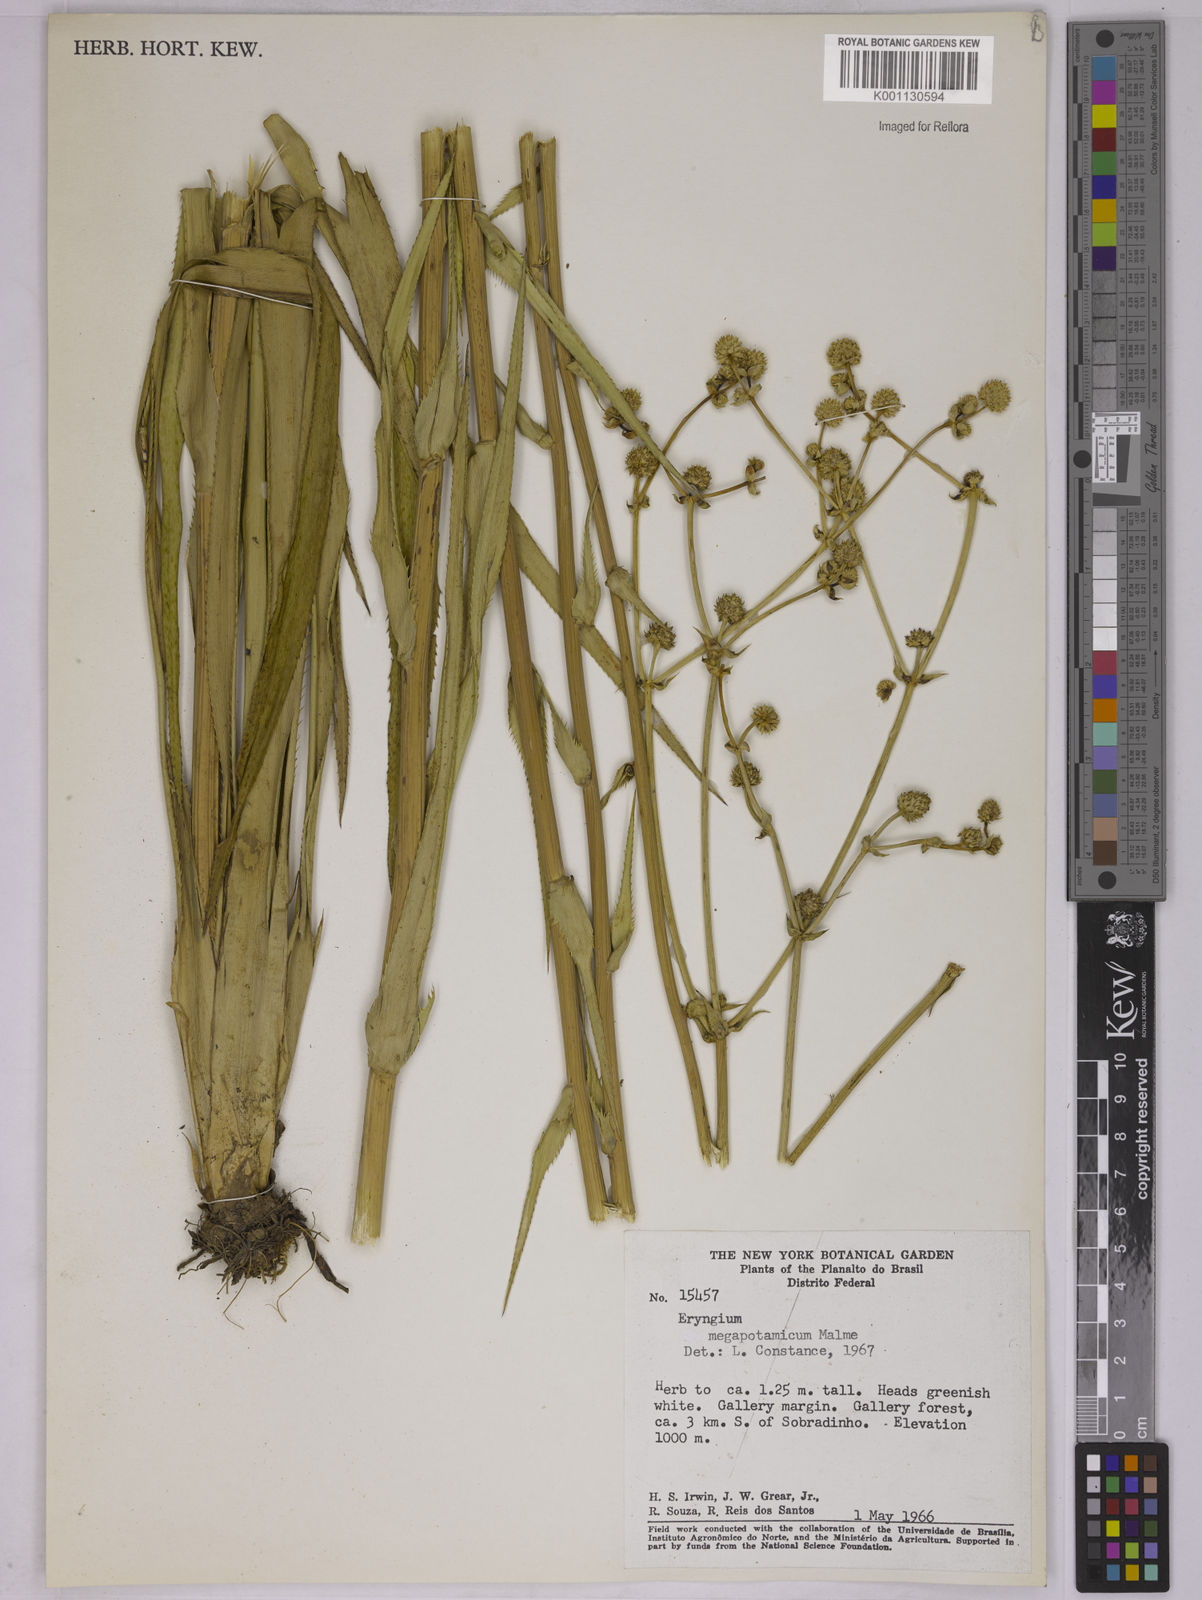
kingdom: Plantae
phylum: Tracheophyta
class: Magnoliopsida
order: Apiales
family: Apiaceae
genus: Eryngium
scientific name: Eryngium megapotamicum
